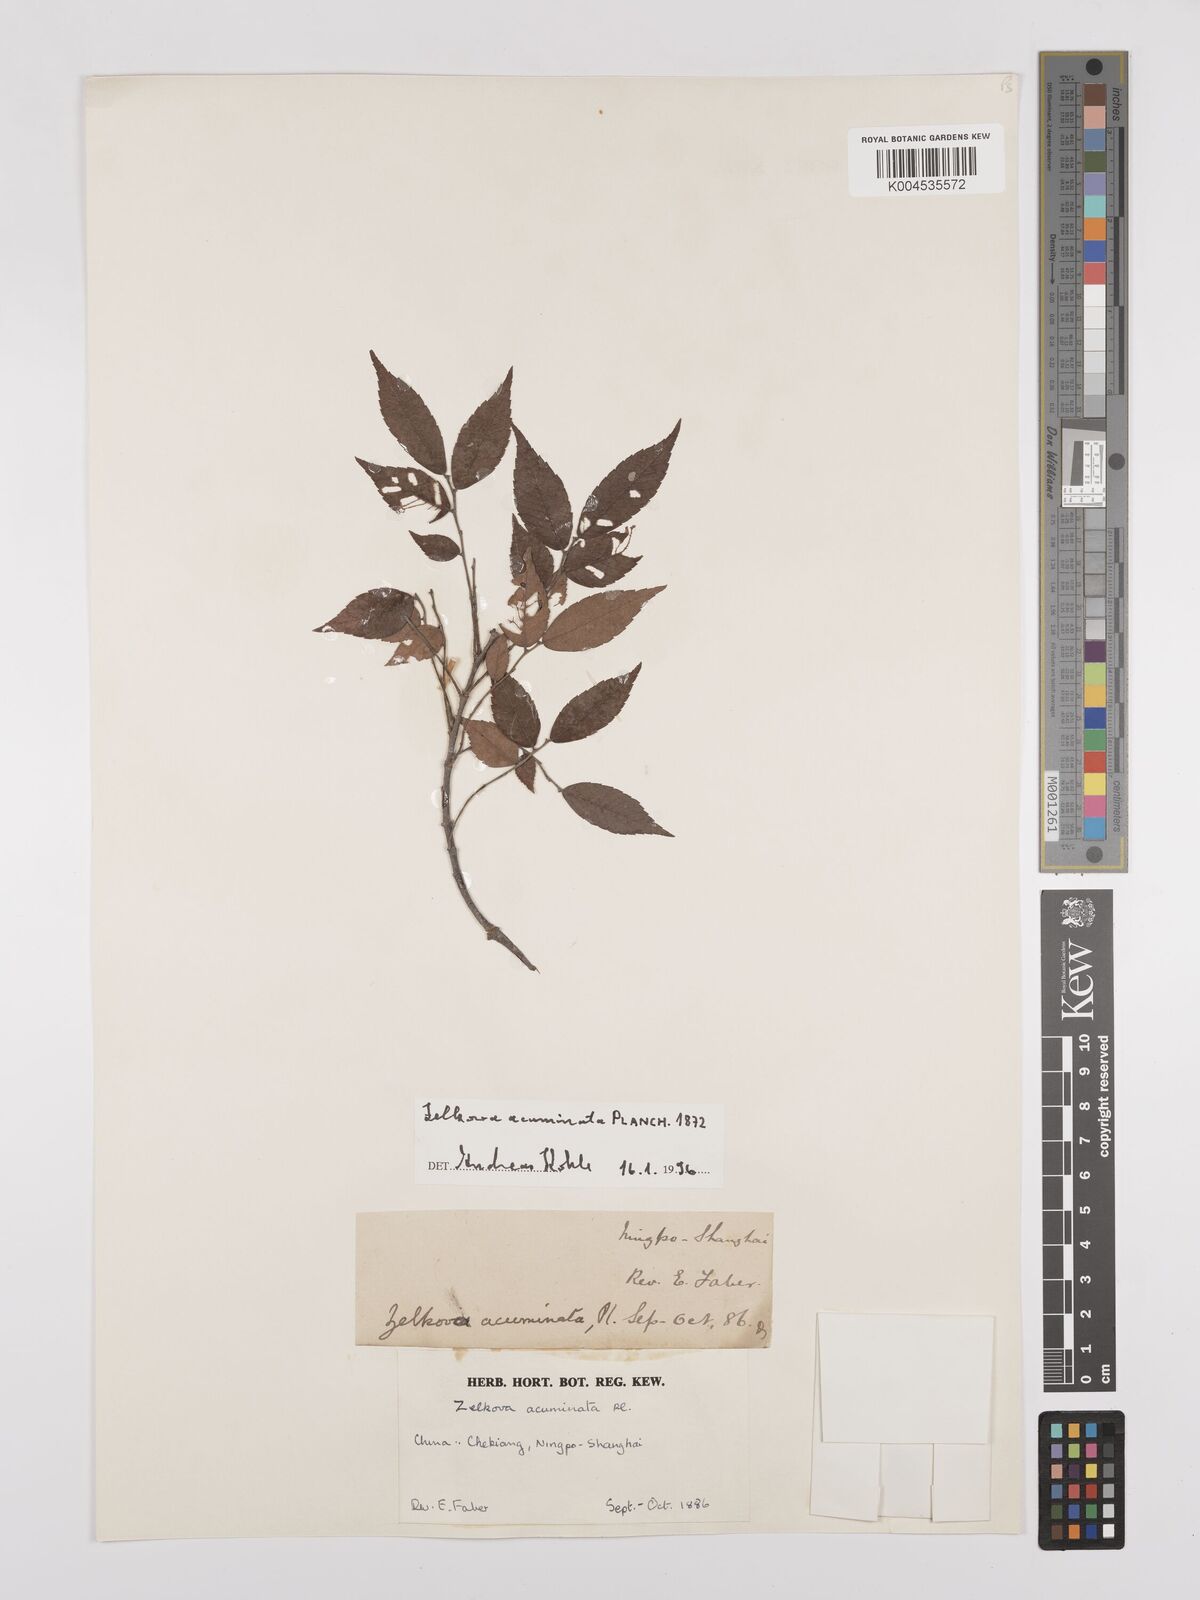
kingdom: Plantae
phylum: Tracheophyta
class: Magnoliopsida
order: Rosales
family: Ulmaceae
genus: Zelkova
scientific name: Zelkova schneideriana
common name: Schneider’s zelkova
